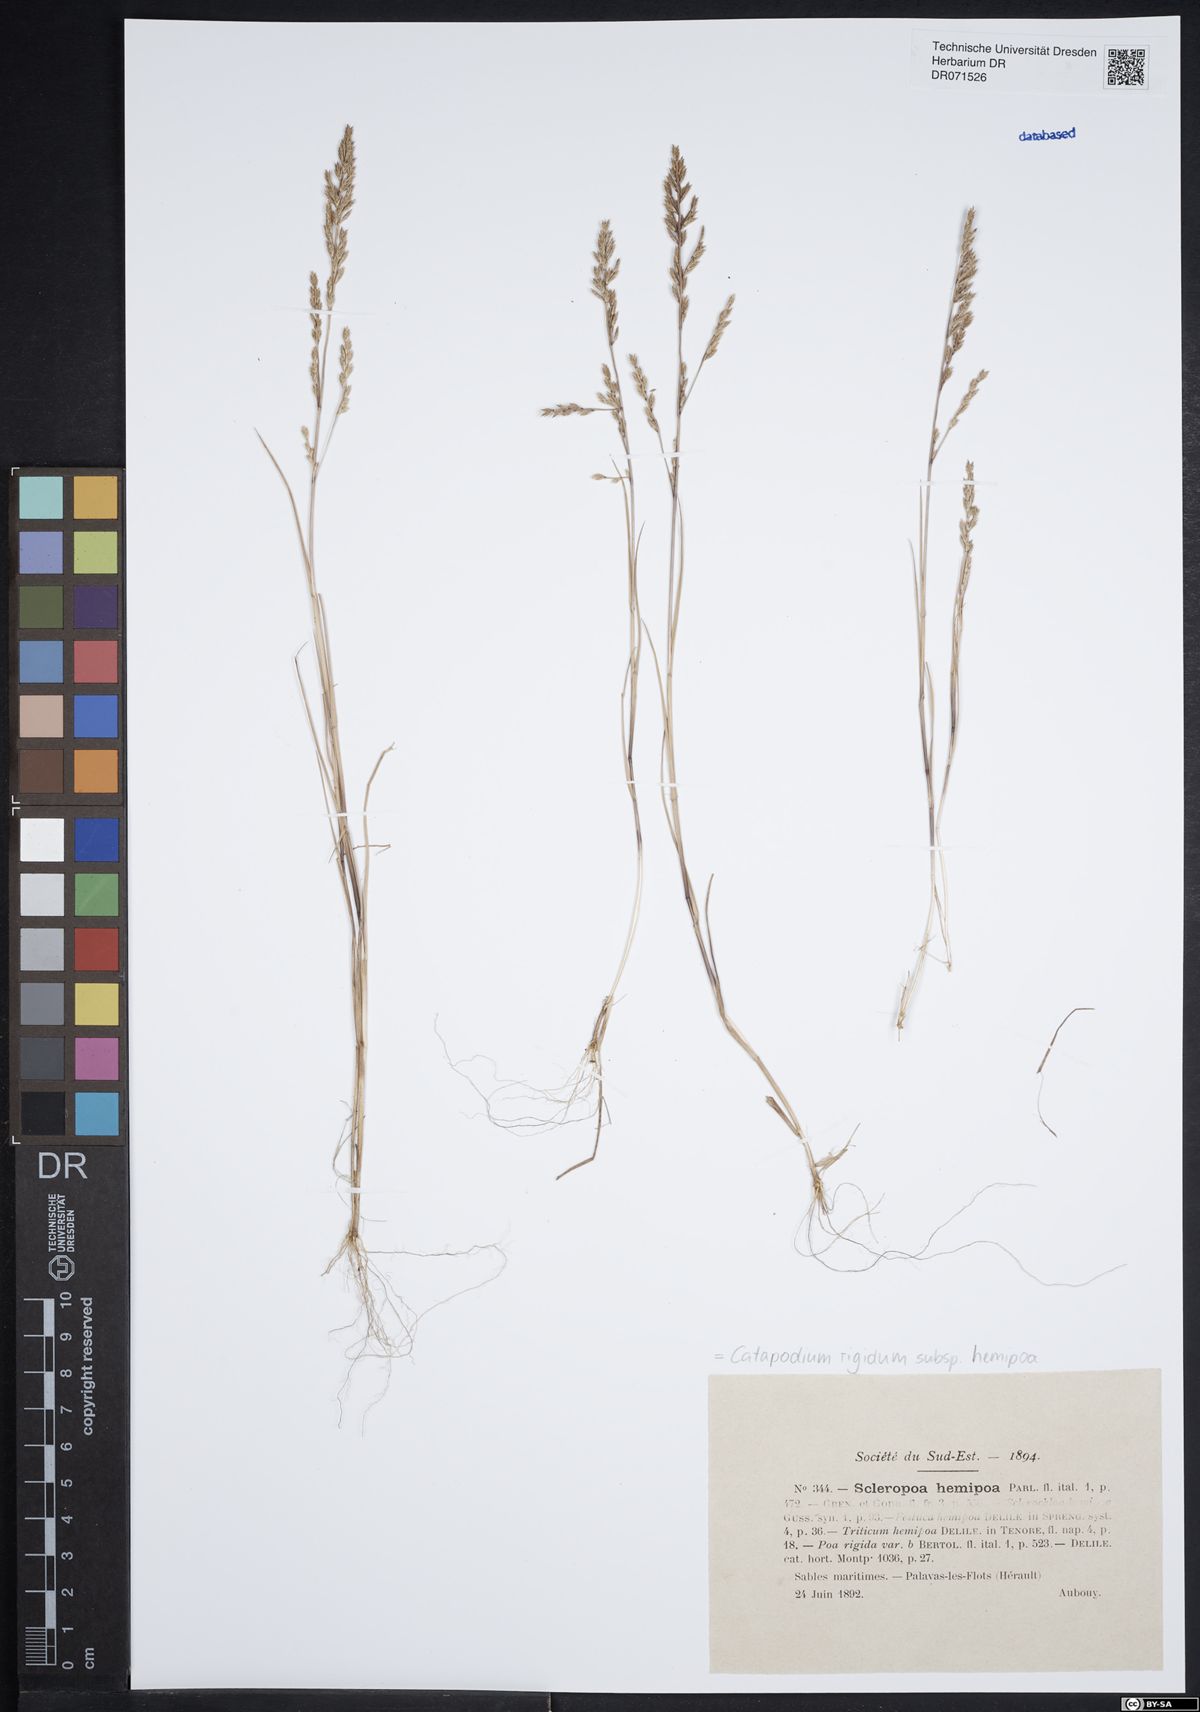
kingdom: Plantae
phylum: Tracheophyta
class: Liliopsida
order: Poales
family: Poaceae
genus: Catapodium
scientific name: Catapodium hemipoa
